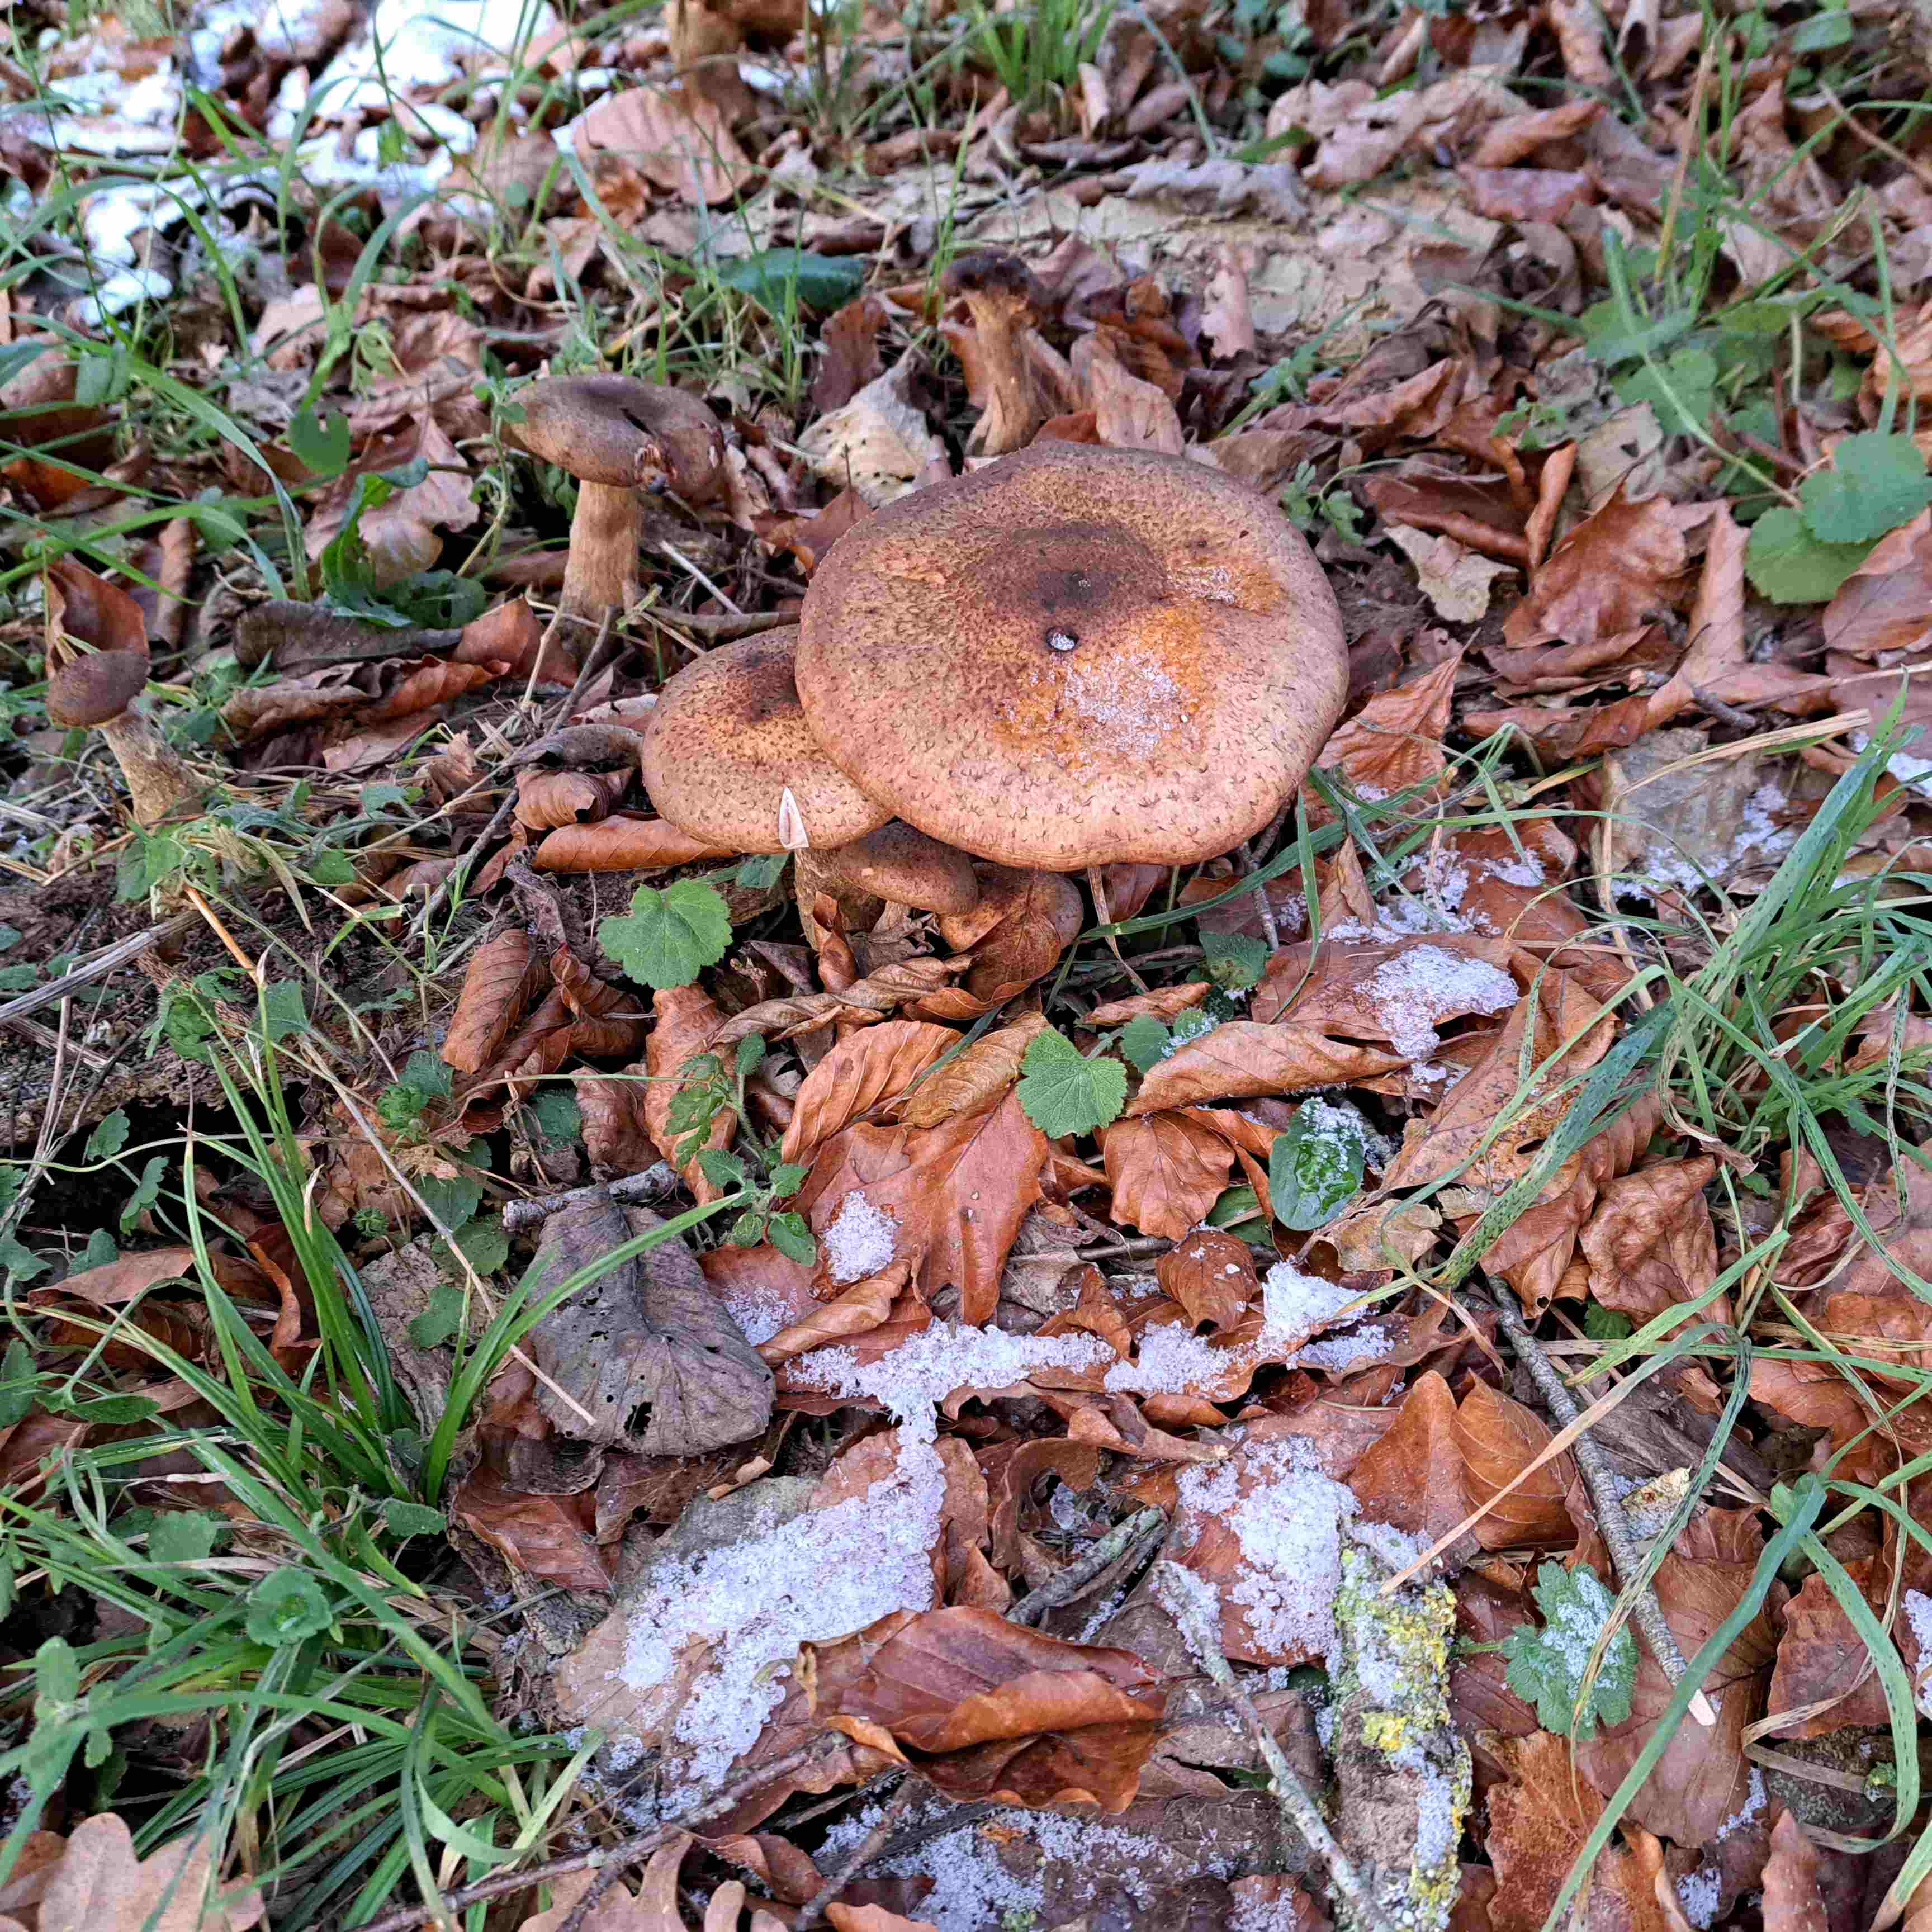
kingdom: Fungi
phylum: Basidiomycota
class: Agaricomycetes
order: Agaricales
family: Physalacriaceae
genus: Armillaria
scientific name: Armillaria lutea
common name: køllestokket honningsvamp
